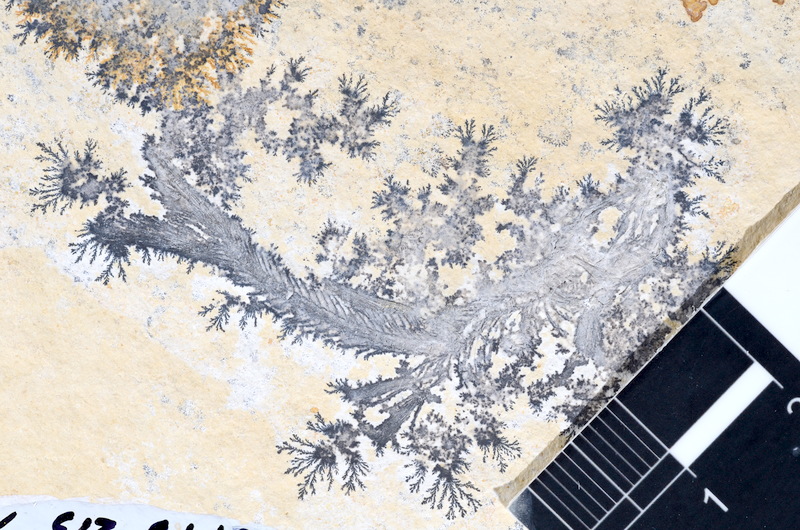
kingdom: Animalia
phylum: Chordata
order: Salmoniformes
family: Orthogonikleithridae
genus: Leptolepides
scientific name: Leptolepides sprattiformis
